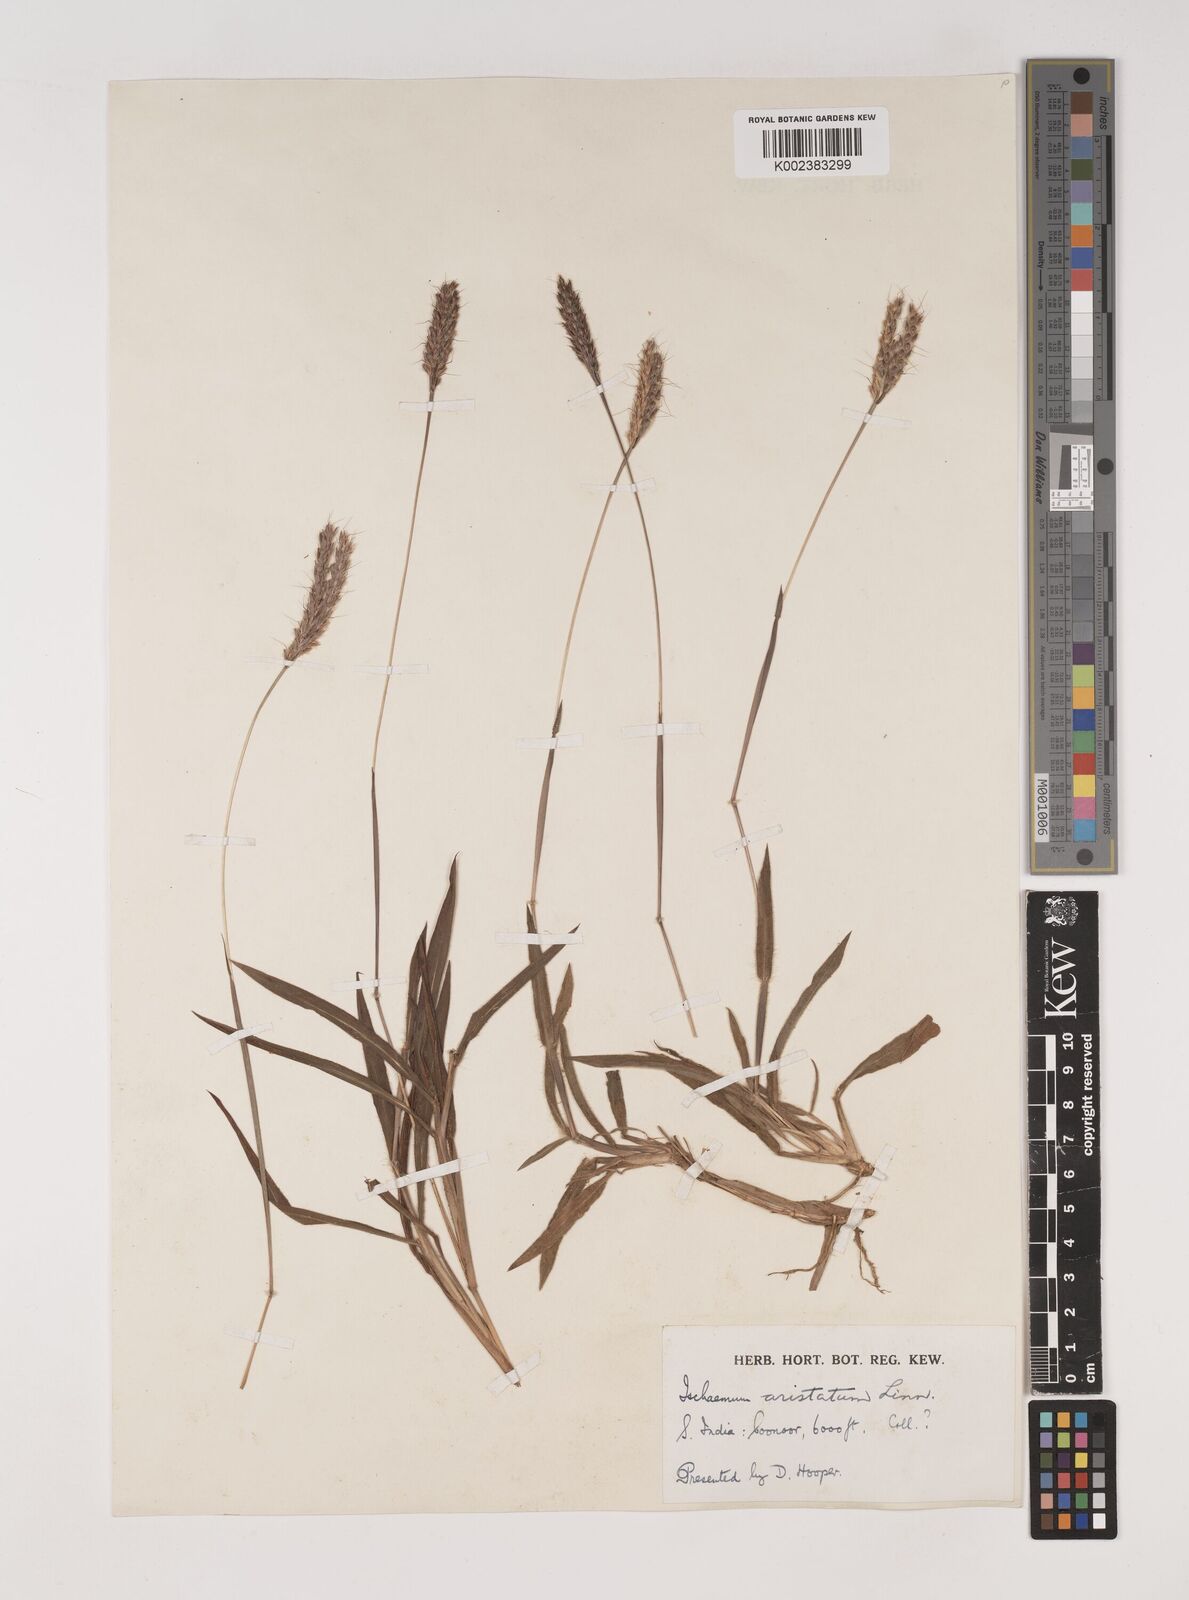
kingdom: Plantae
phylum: Tracheophyta
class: Liliopsida
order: Poales
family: Poaceae
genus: Polytrias
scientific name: Polytrias indica
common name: Indian murainagrass
